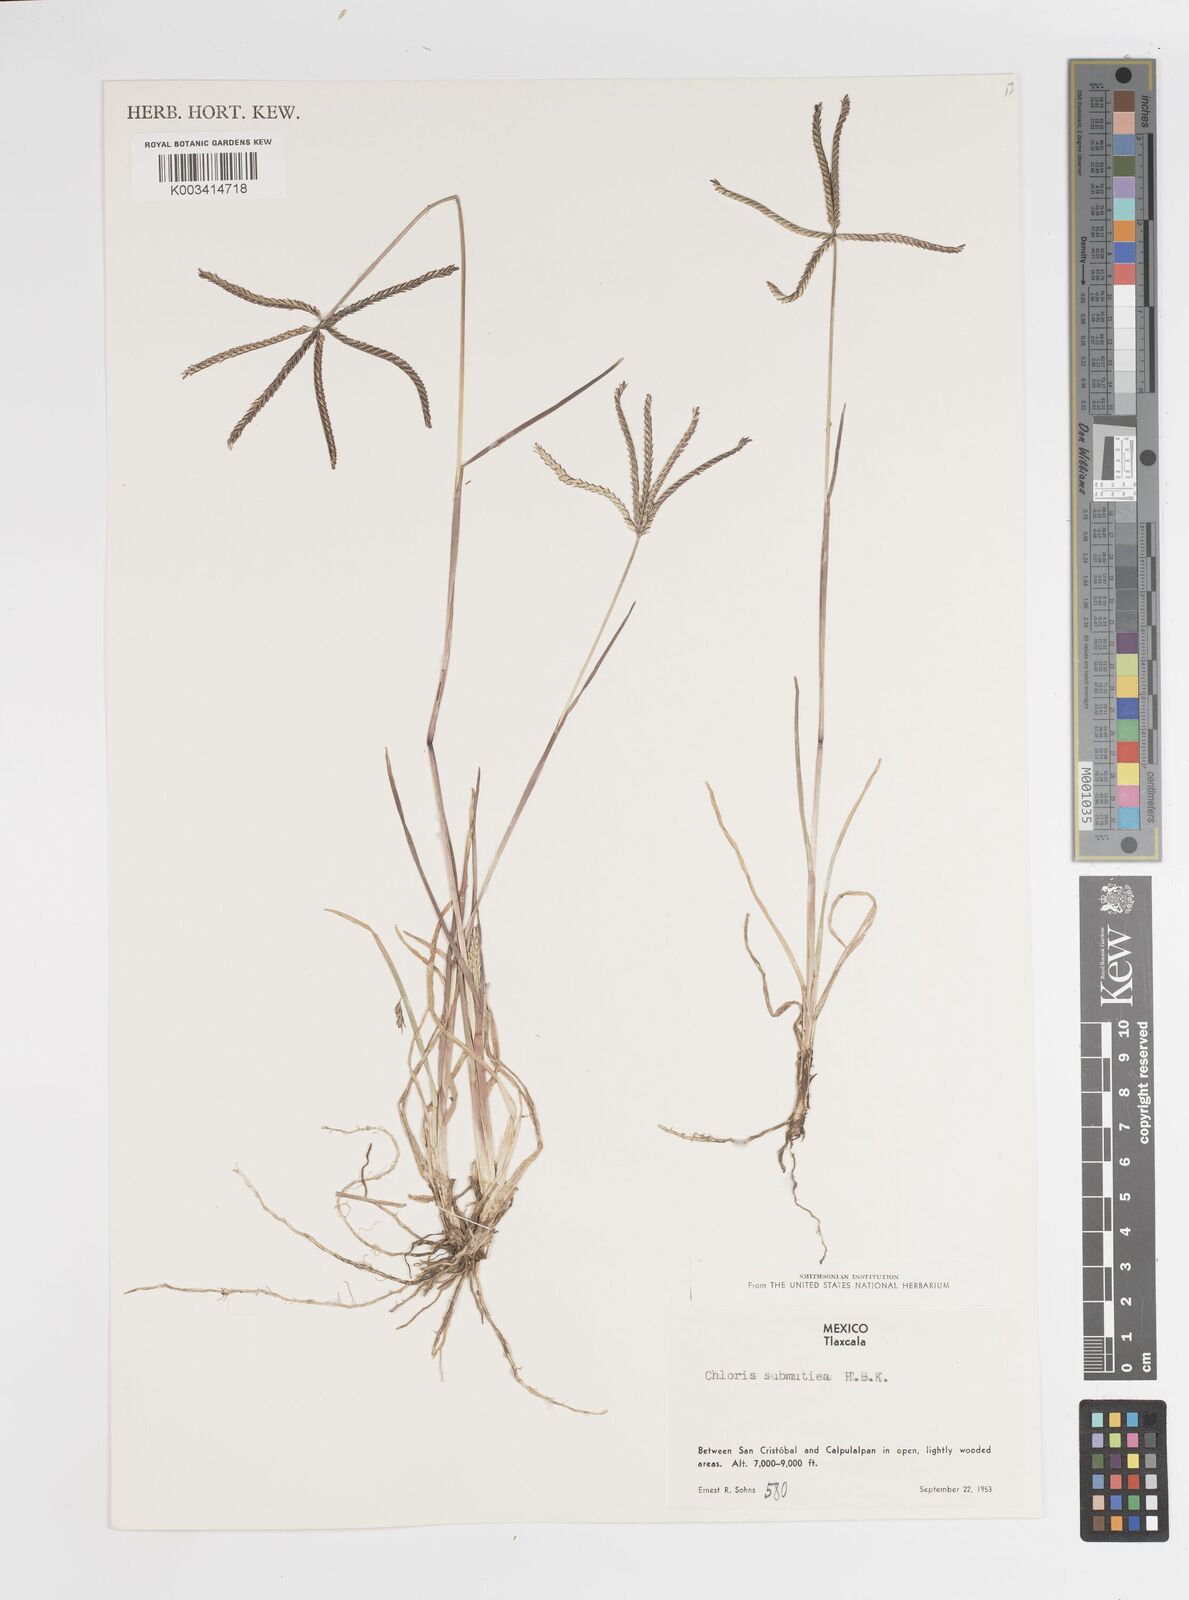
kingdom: Plantae
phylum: Tracheophyta
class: Liliopsida
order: Poales
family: Poaceae
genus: Chloris
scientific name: Chloris submutica
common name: Mexican windmill grass
